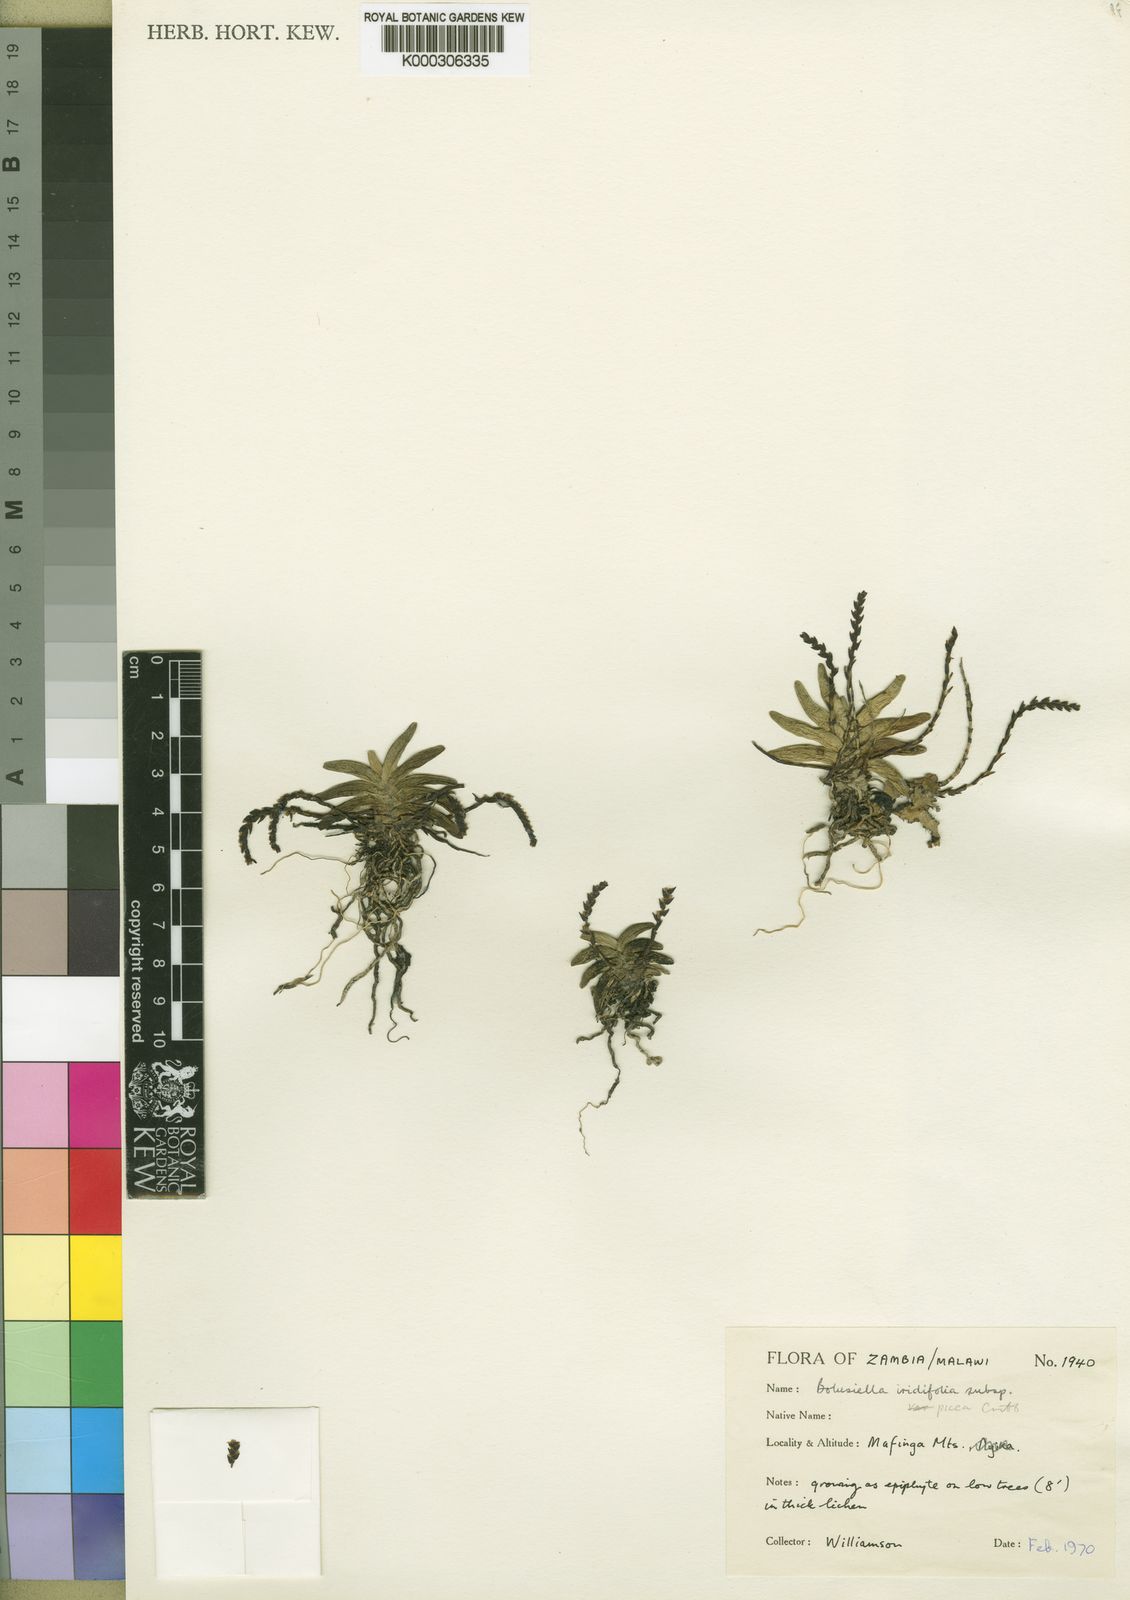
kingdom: Plantae
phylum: Tracheophyta
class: Liliopsida
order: Asparagales
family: Orchidaceae
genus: Bolusiella
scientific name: Bolusiella iridifolia
